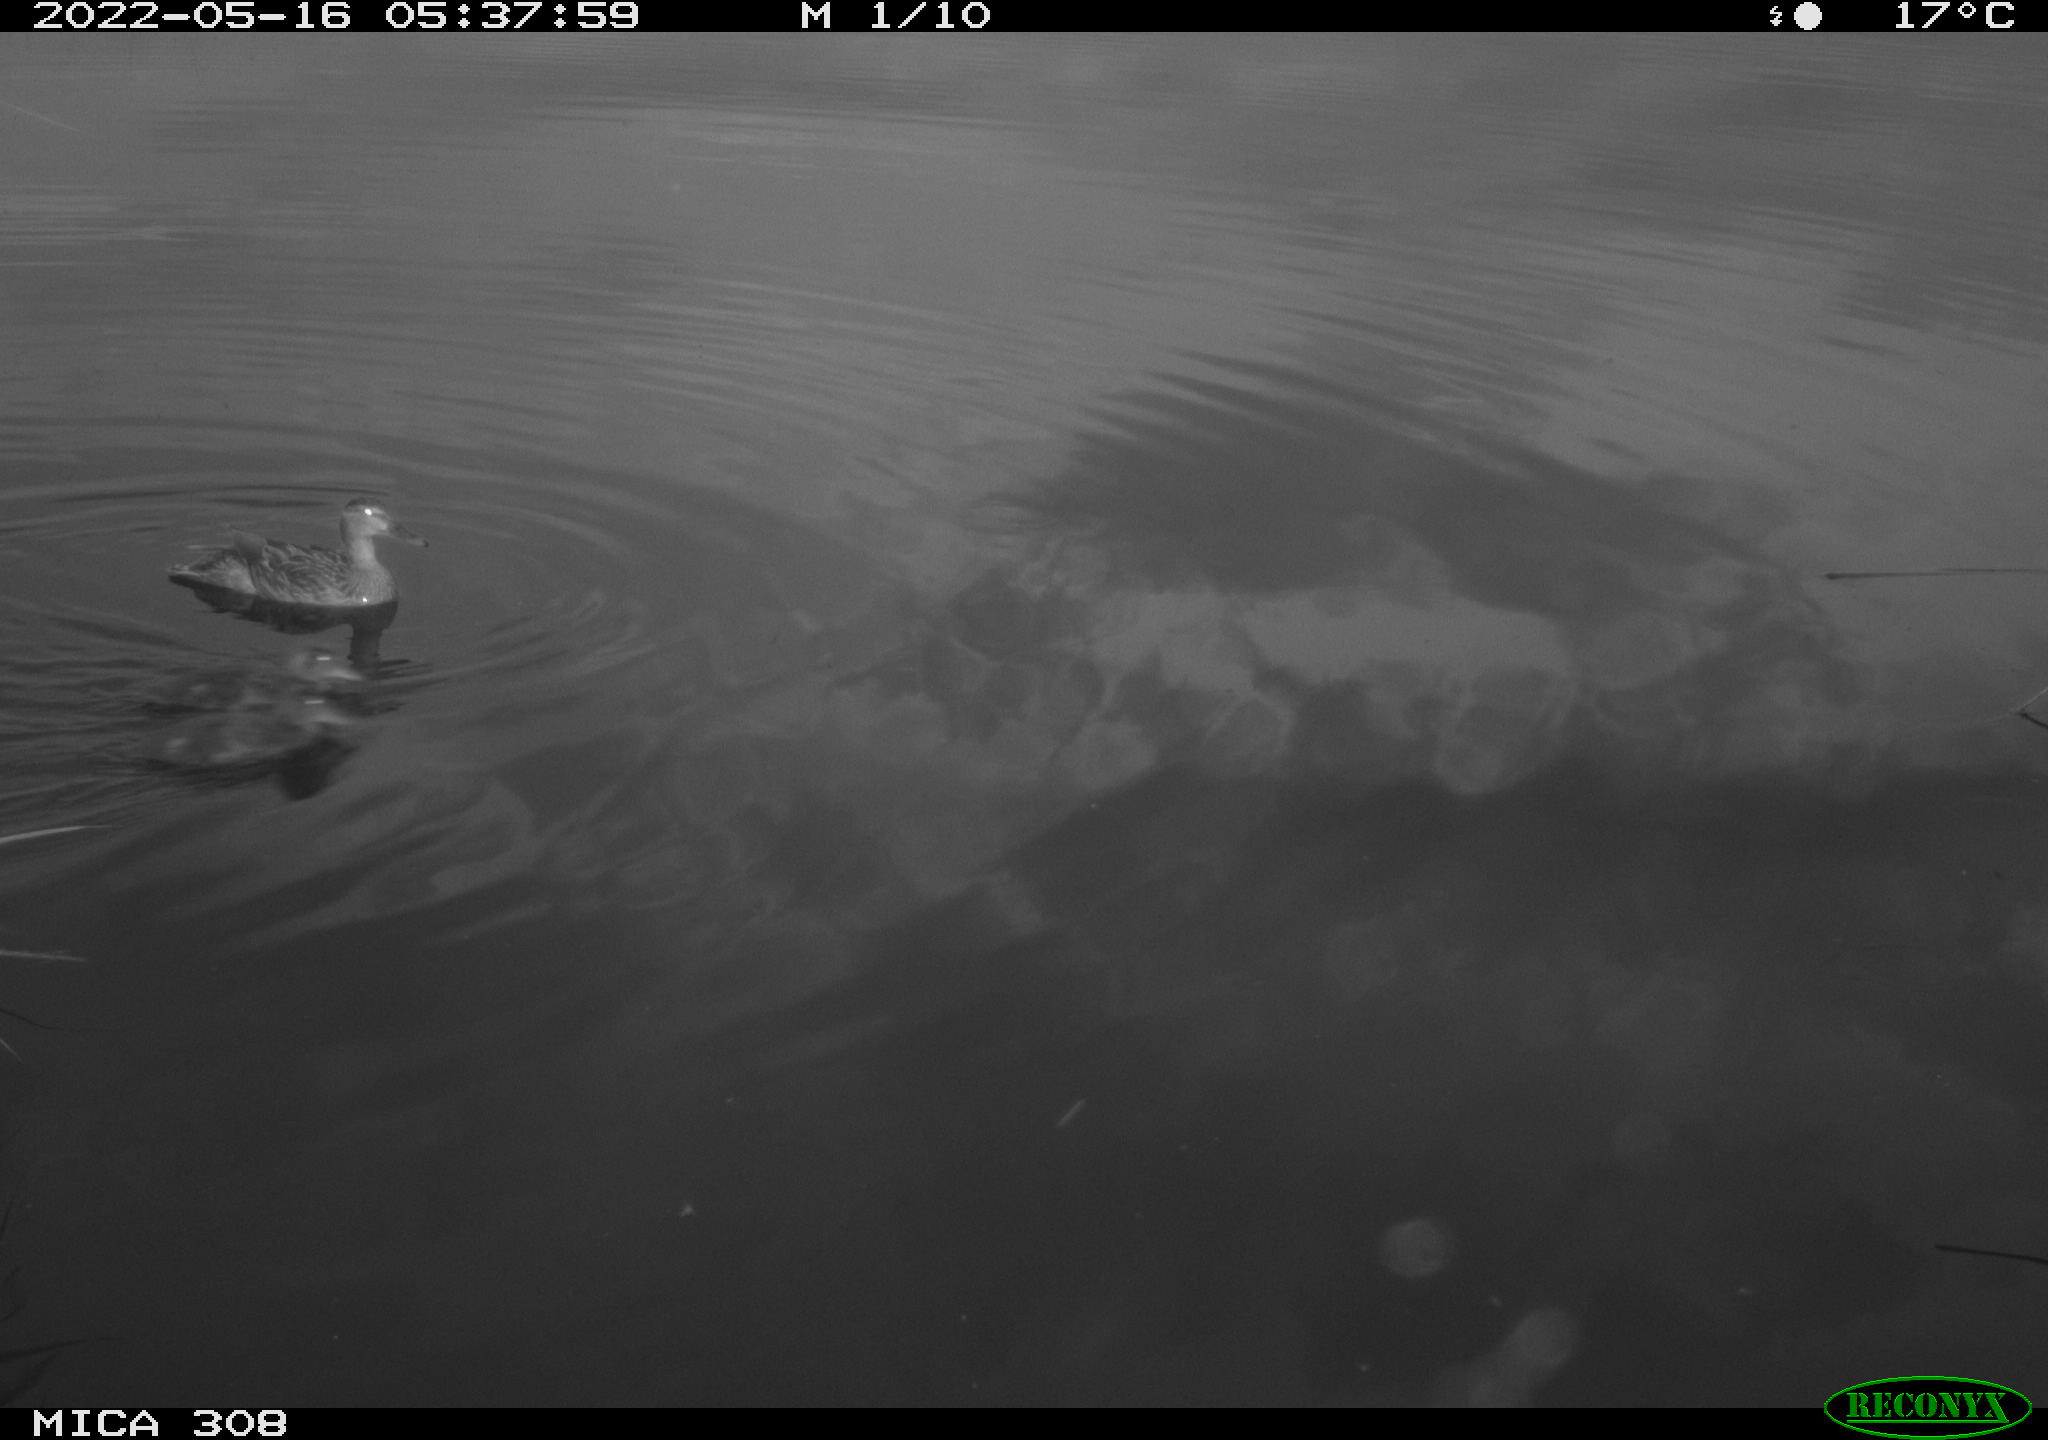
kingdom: Animalia
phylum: Chordata
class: Aves
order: Anseriformes
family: Anatidae
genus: Anas
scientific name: Anas platyrhynchos
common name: Mallard
